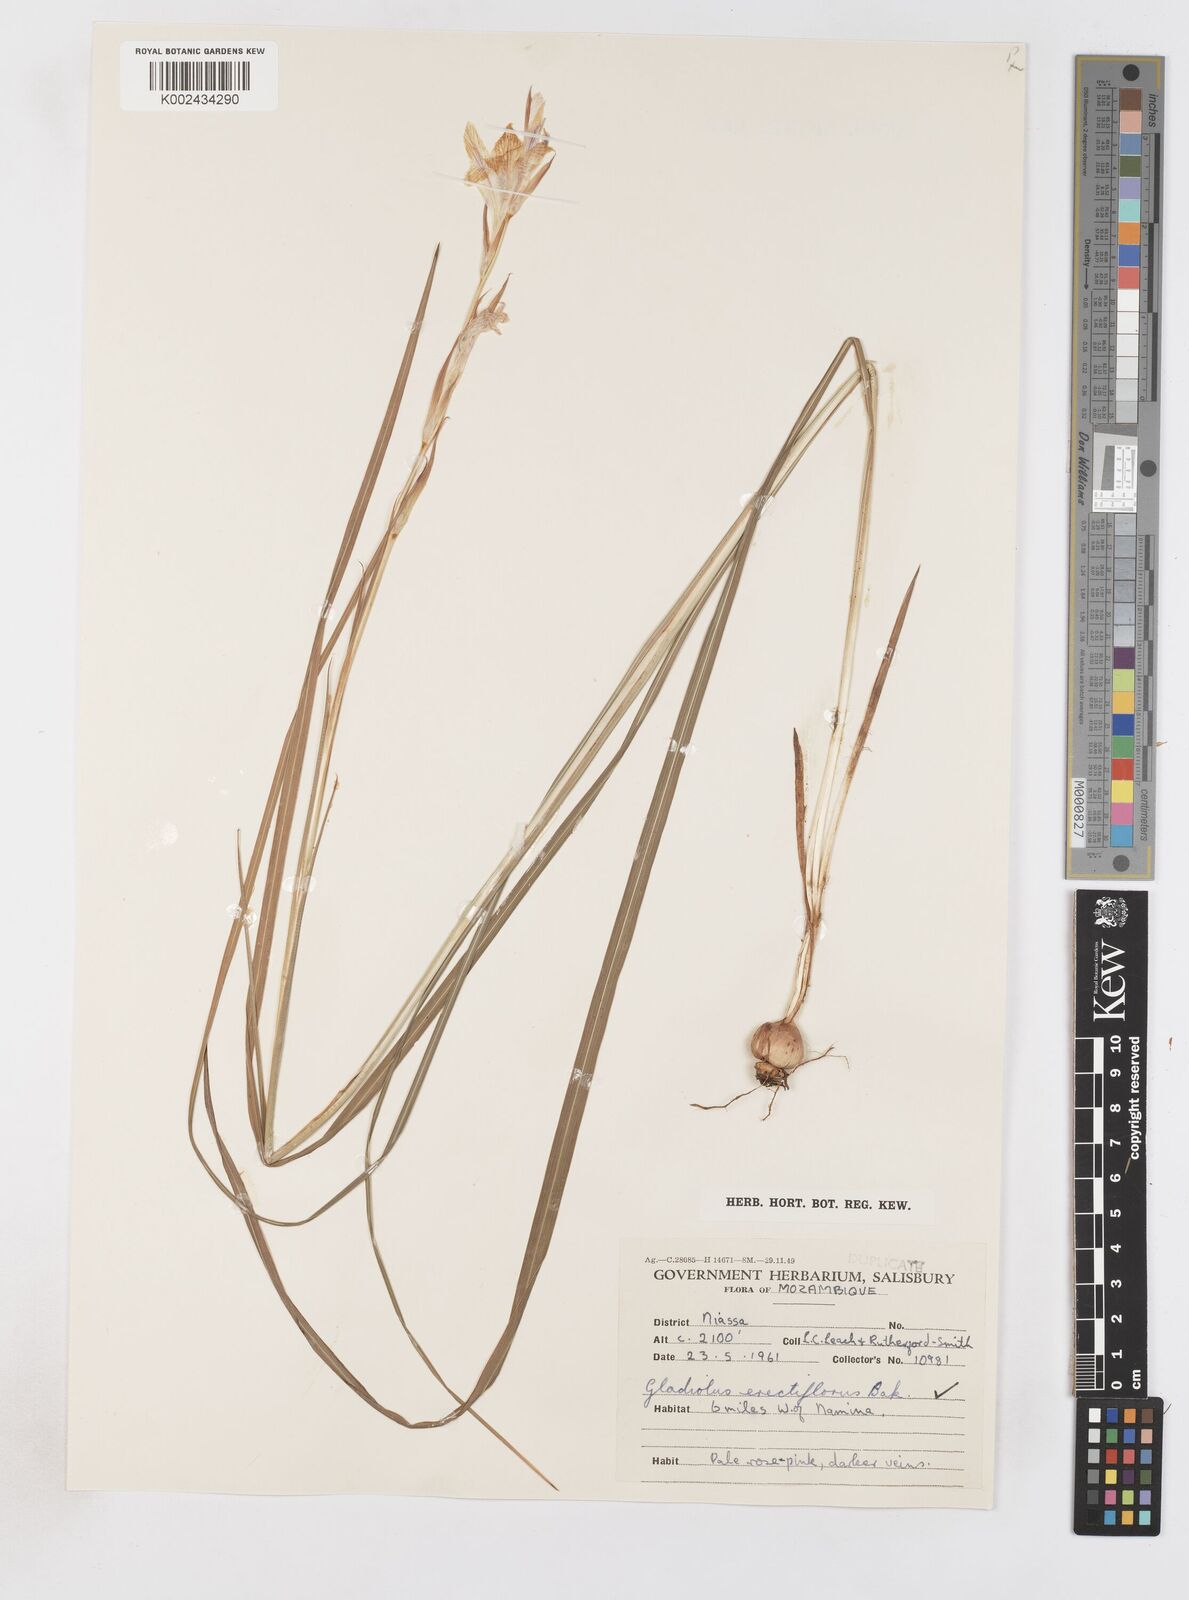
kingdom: Plantae
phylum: Tracheophyta
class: Liliopsida
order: Asparagales
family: Iridaceae
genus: Gladiolus
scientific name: Gladiolus erectiflorus
